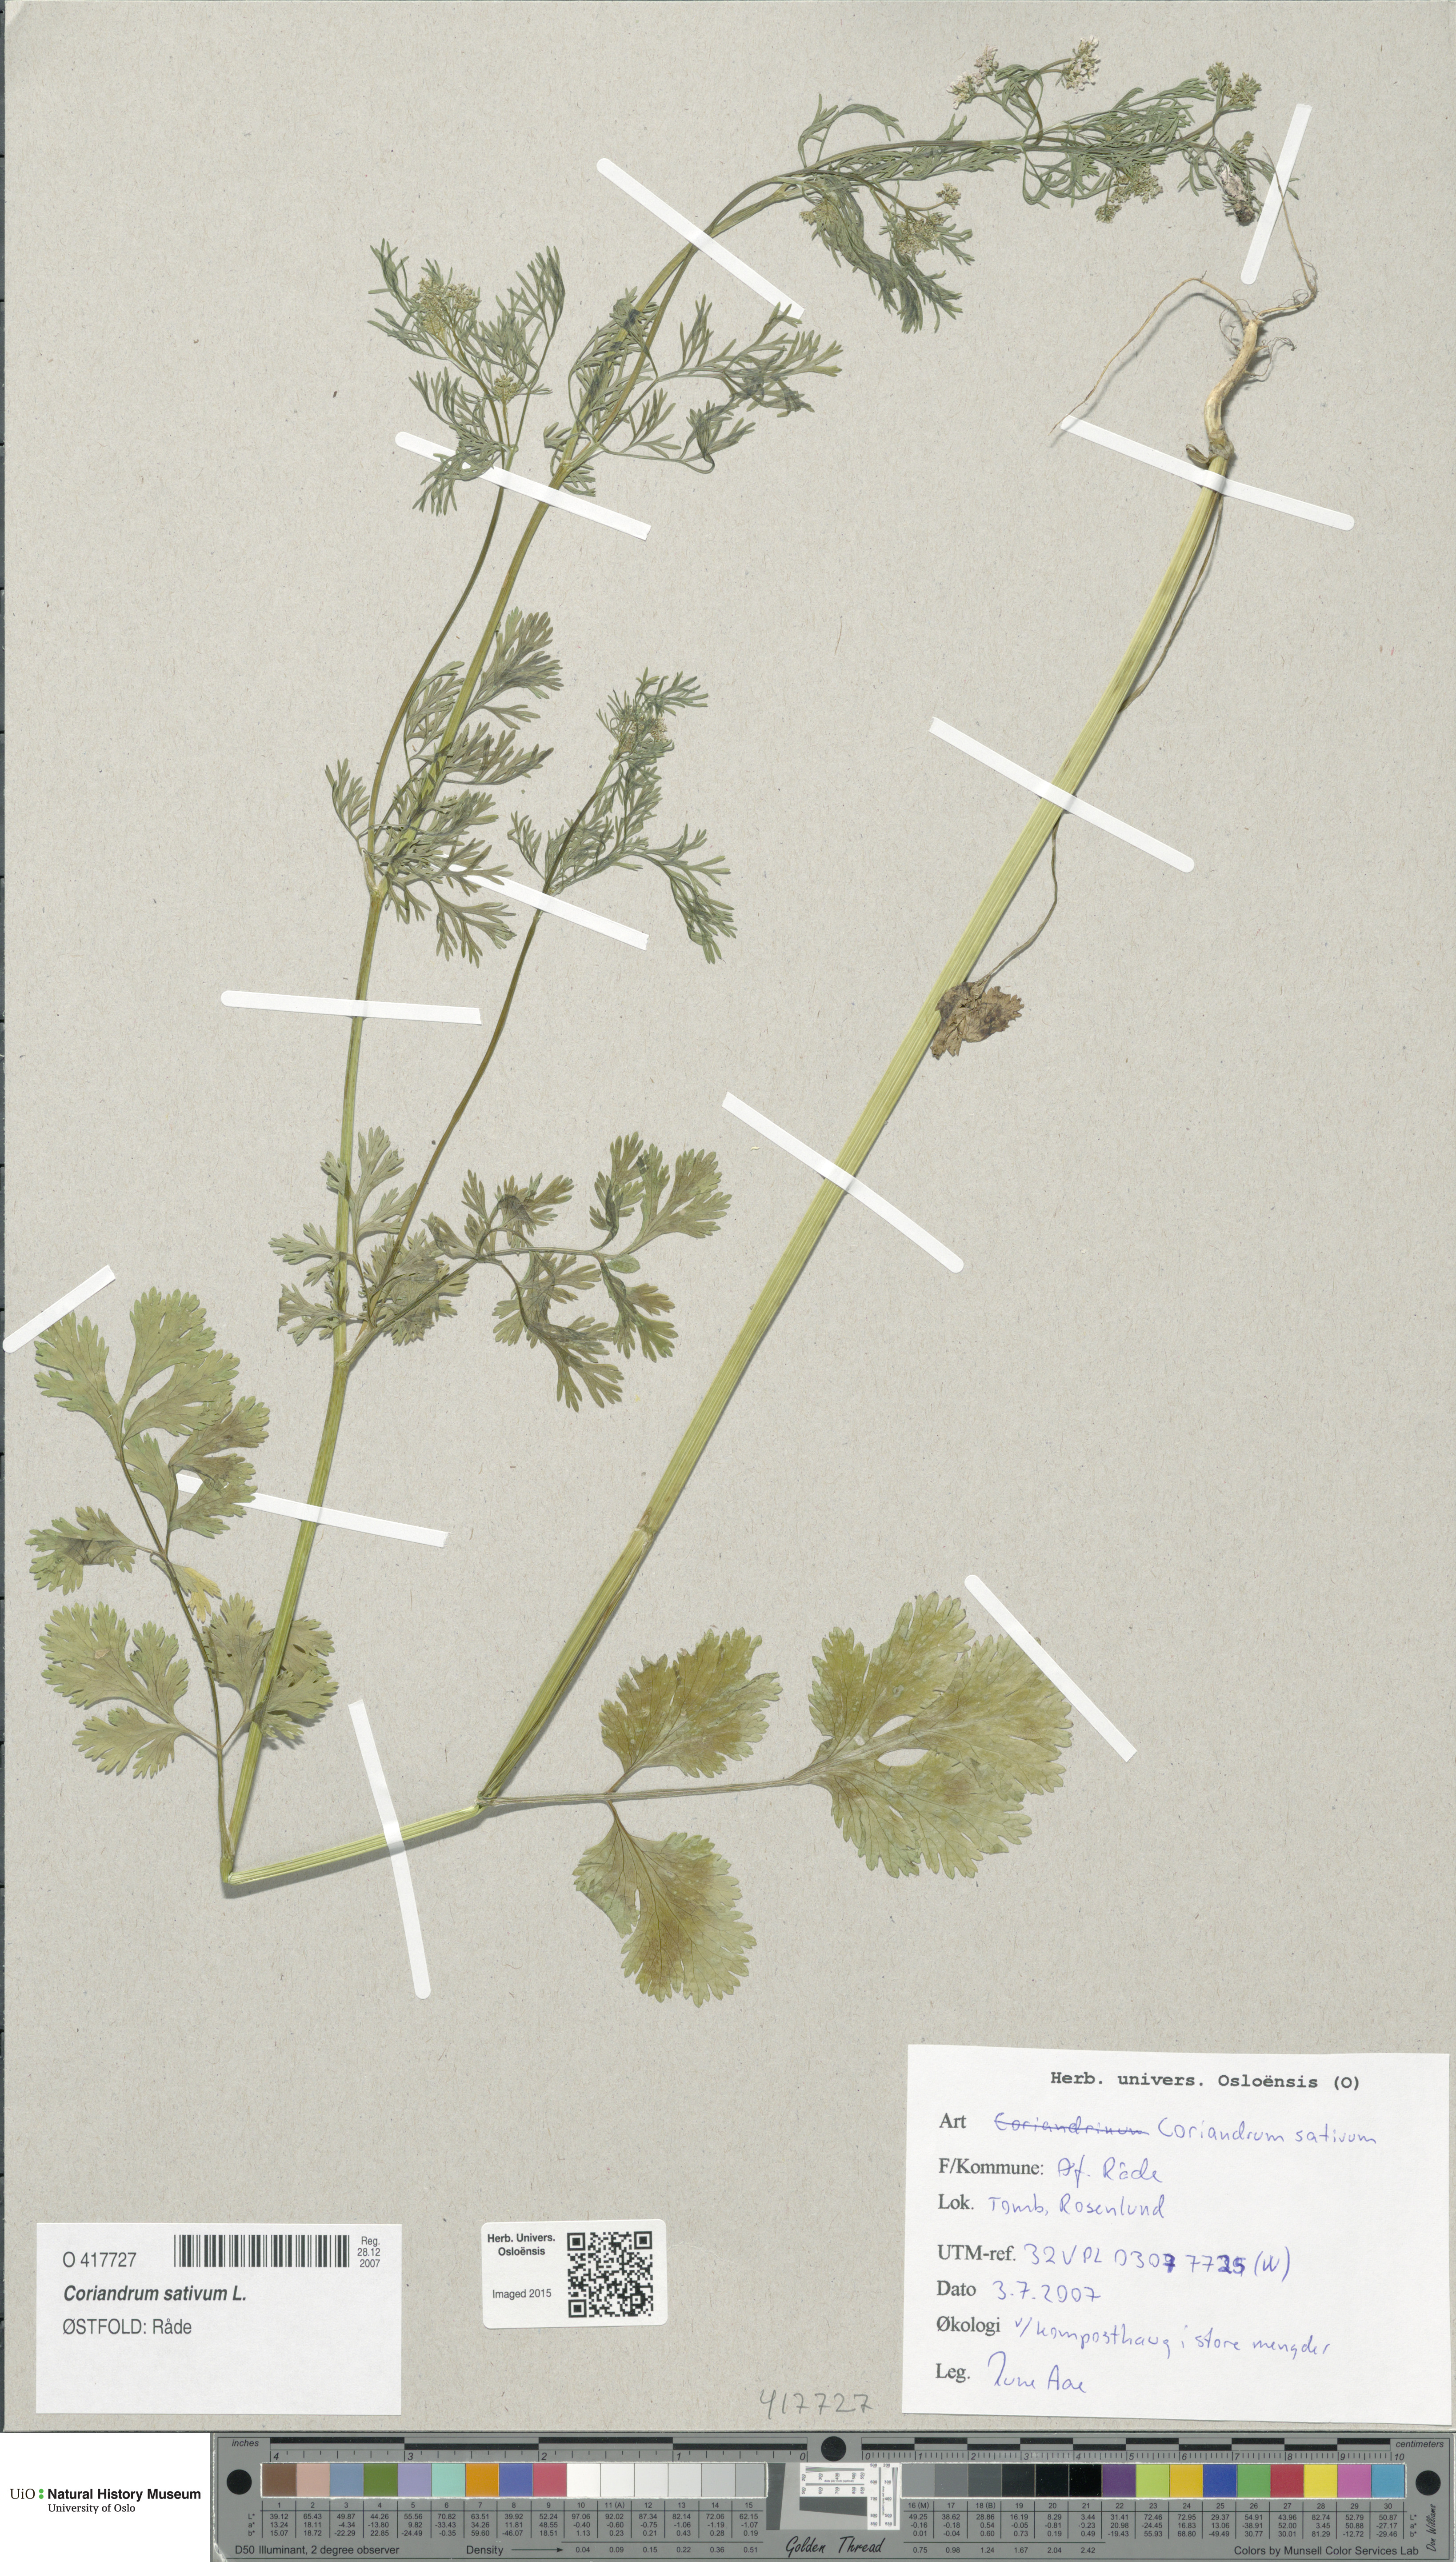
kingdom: Plantae
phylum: Tracheophyta
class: Magnoliopsida
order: Apiales
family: Apiaceae
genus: Coriandrum
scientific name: Coriandrum sativum
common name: Coriander
